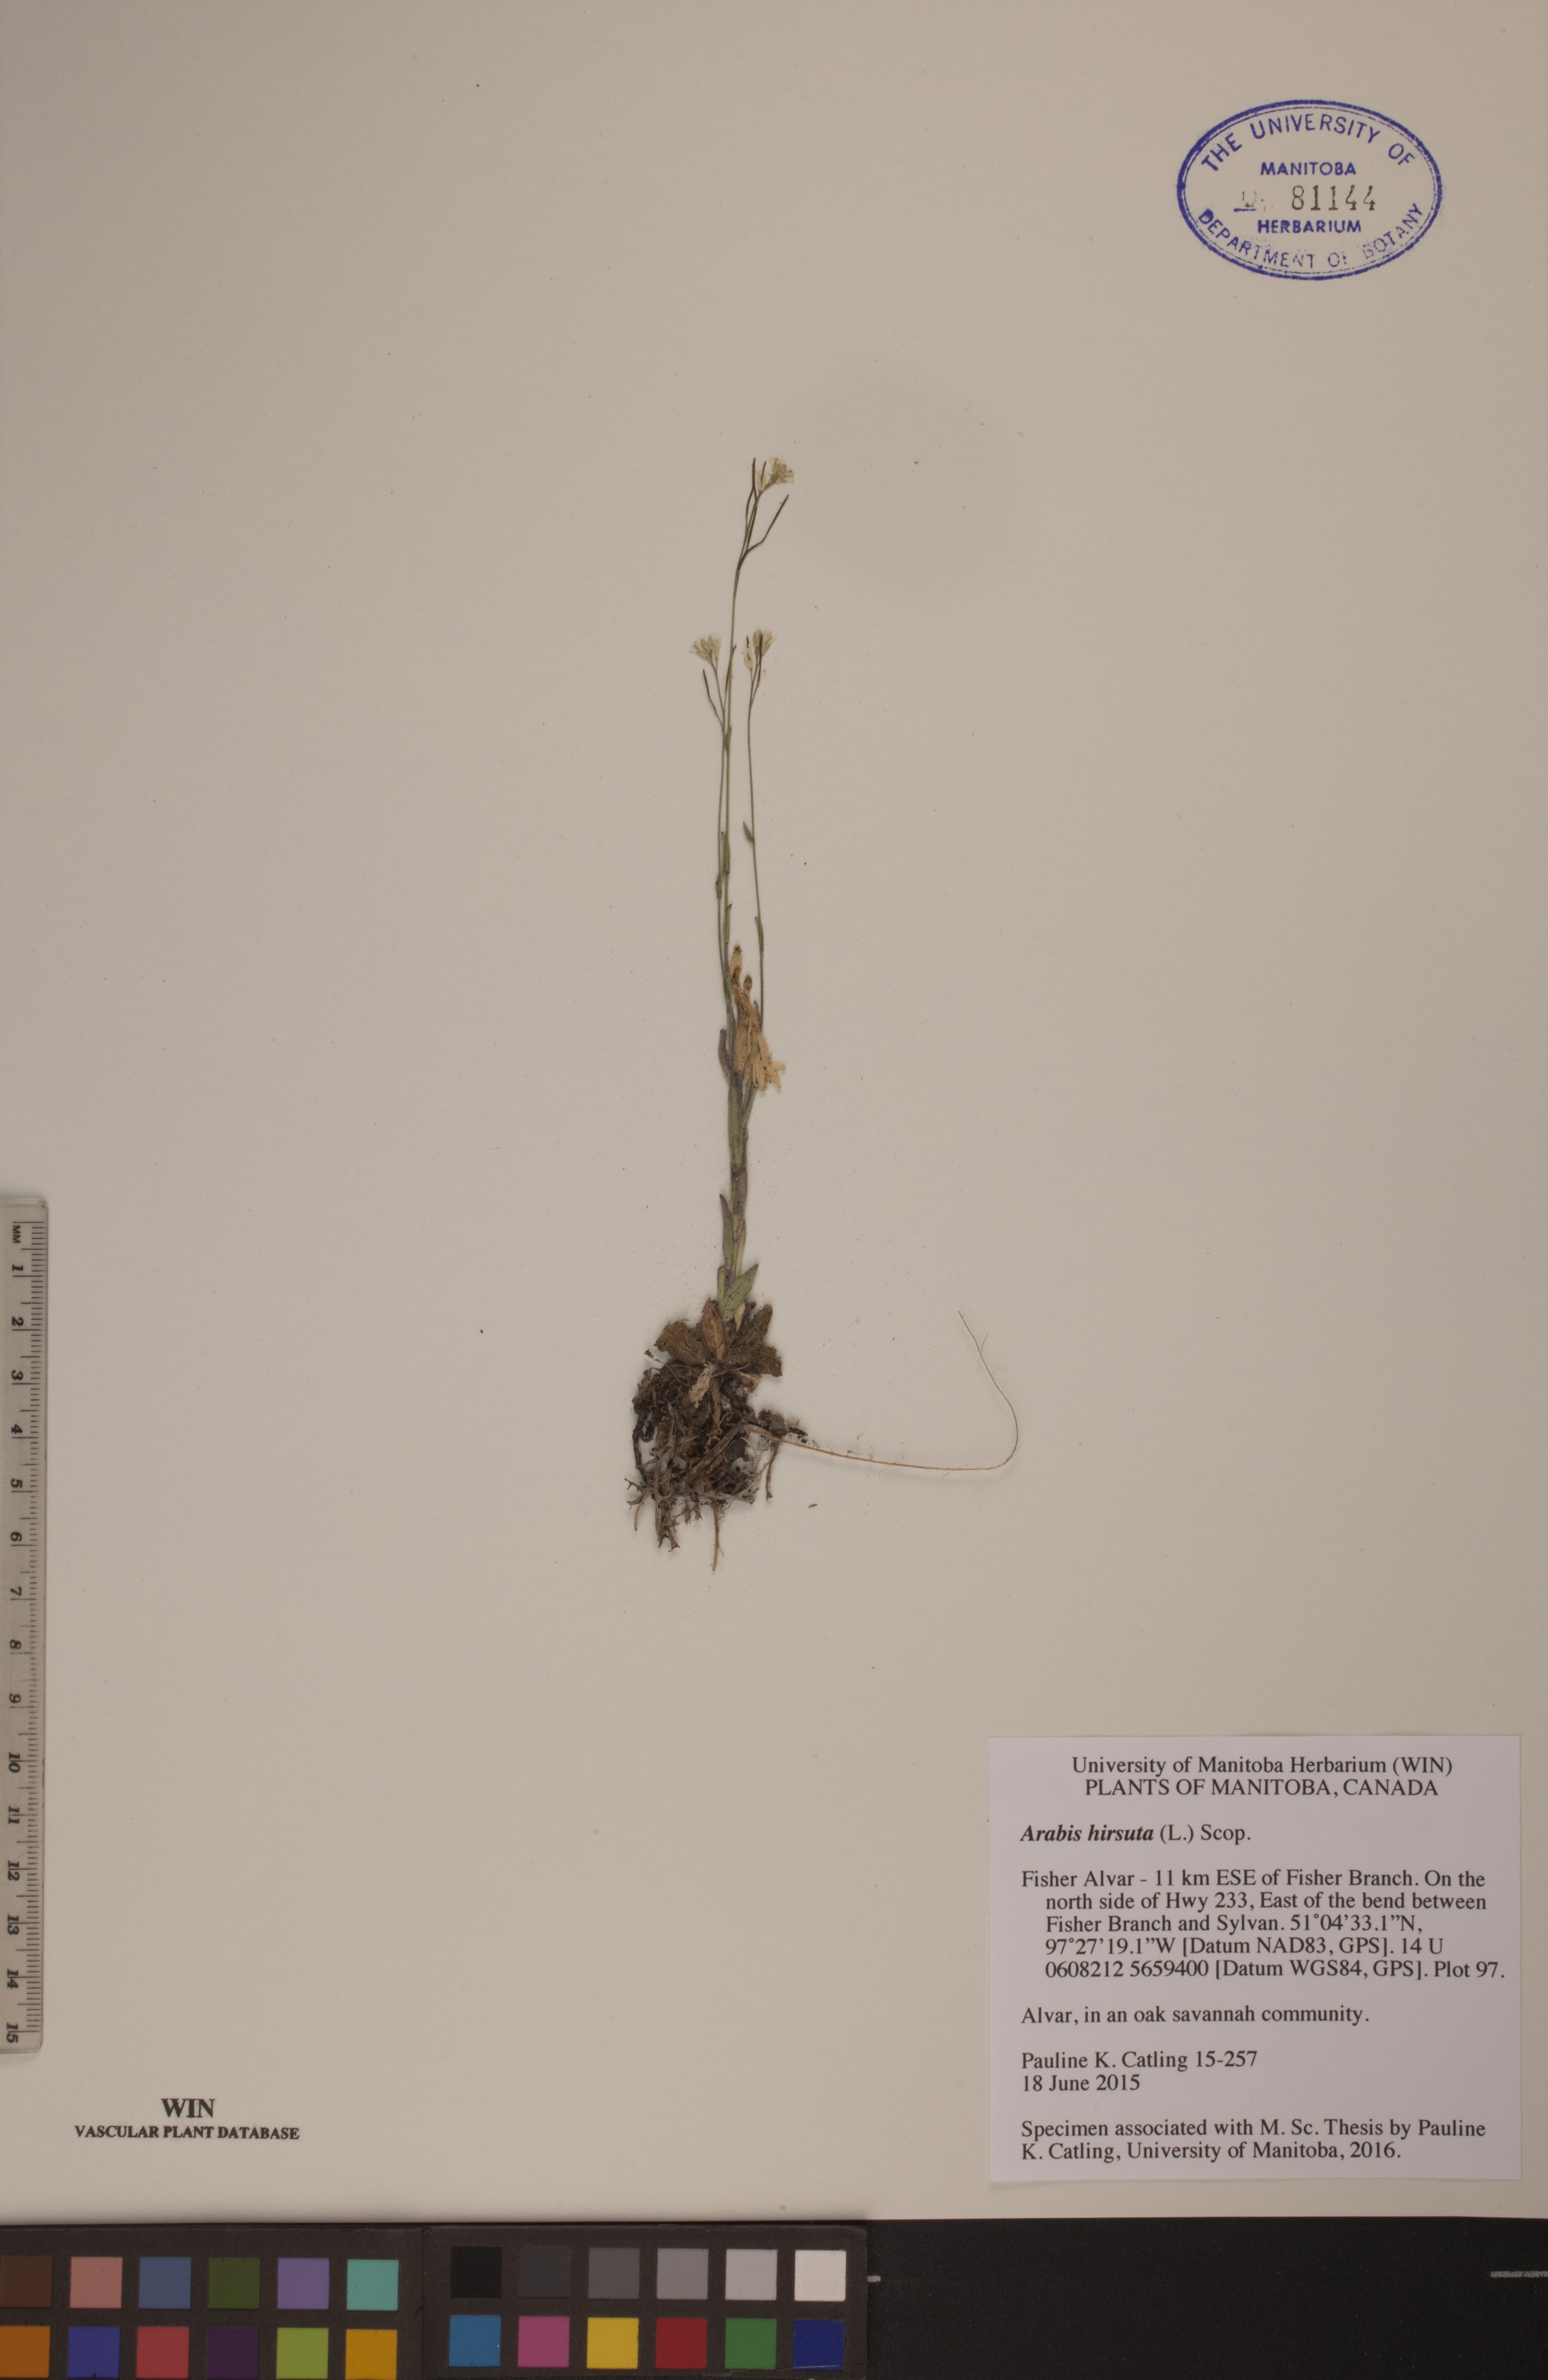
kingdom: Plantae
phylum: Tracheophyta
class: Magnoliopsida
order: Brassicales
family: Brassicaceae
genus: Arabis
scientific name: Arabis hirsuta
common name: Hairy rock-cress
